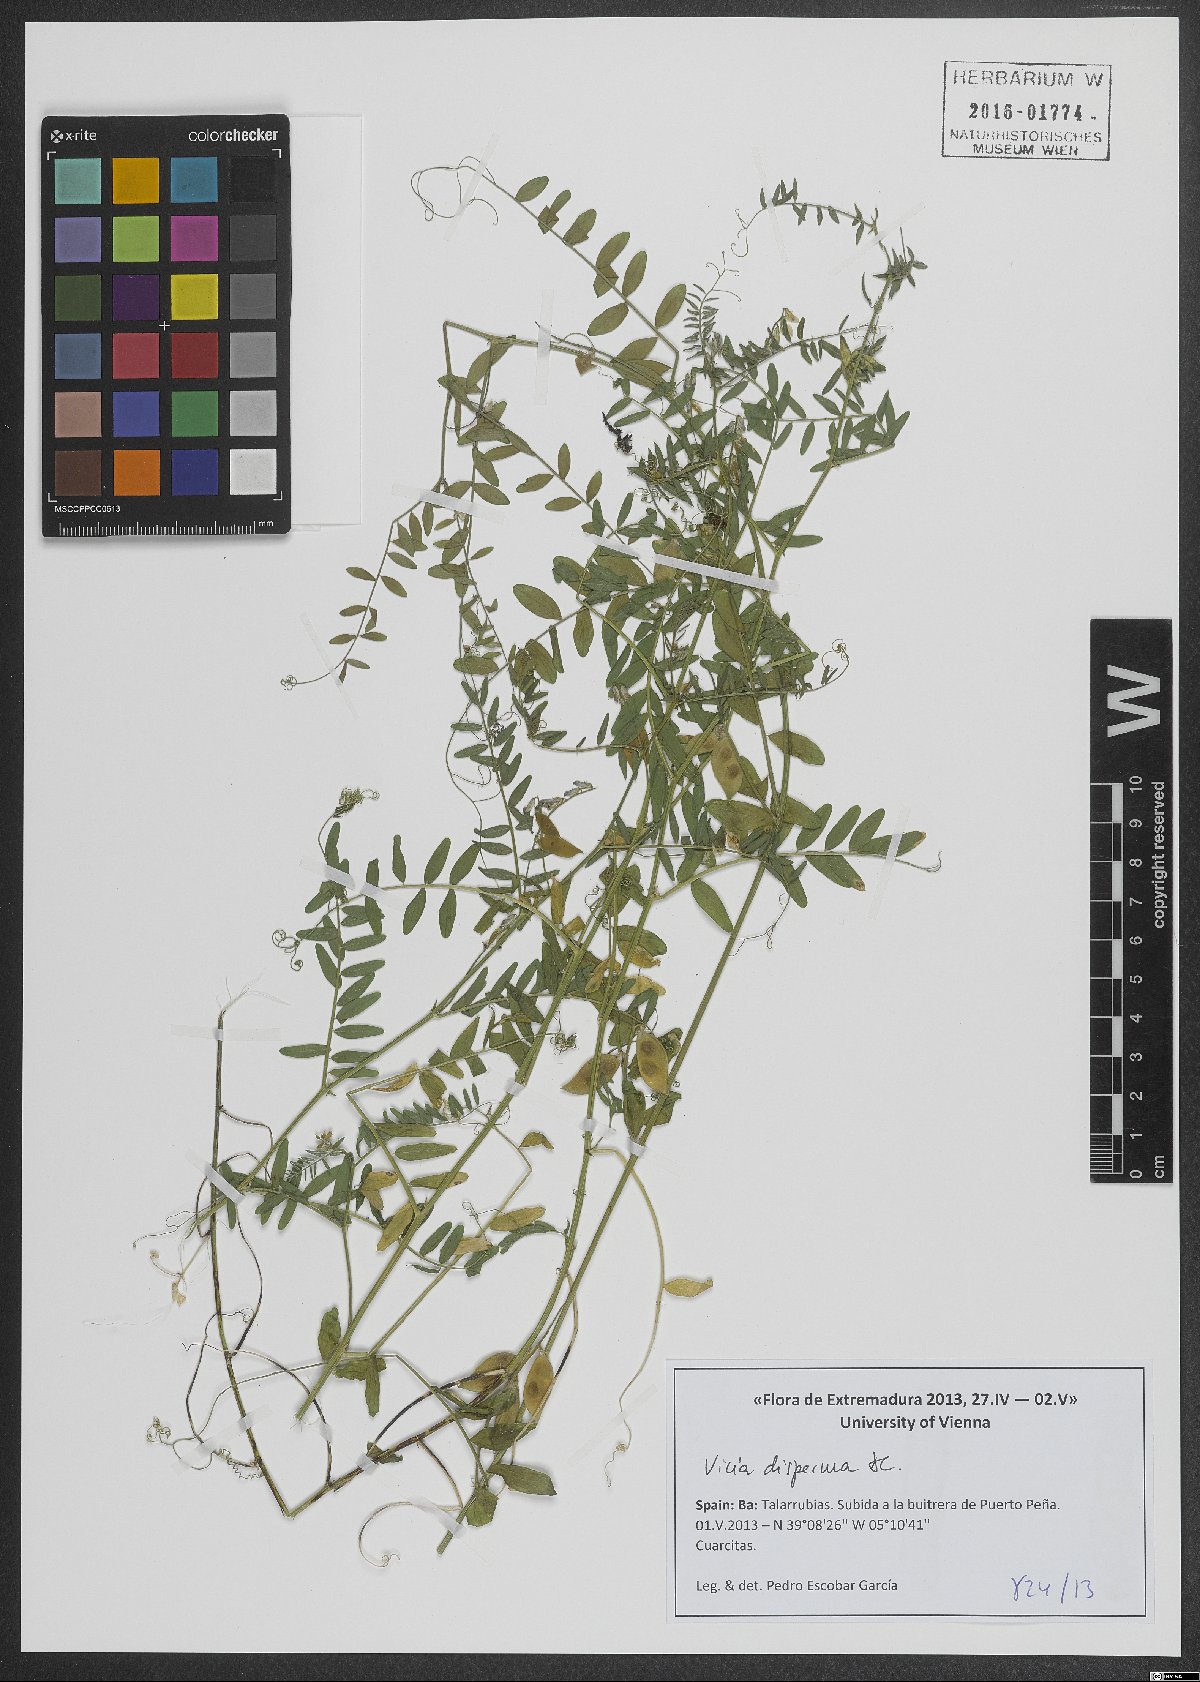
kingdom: Plantae
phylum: Tracheophyta
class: Magnoliopsida
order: Fabales
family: Fabaceae
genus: Vicia
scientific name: Vicia disperma
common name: European vetch
